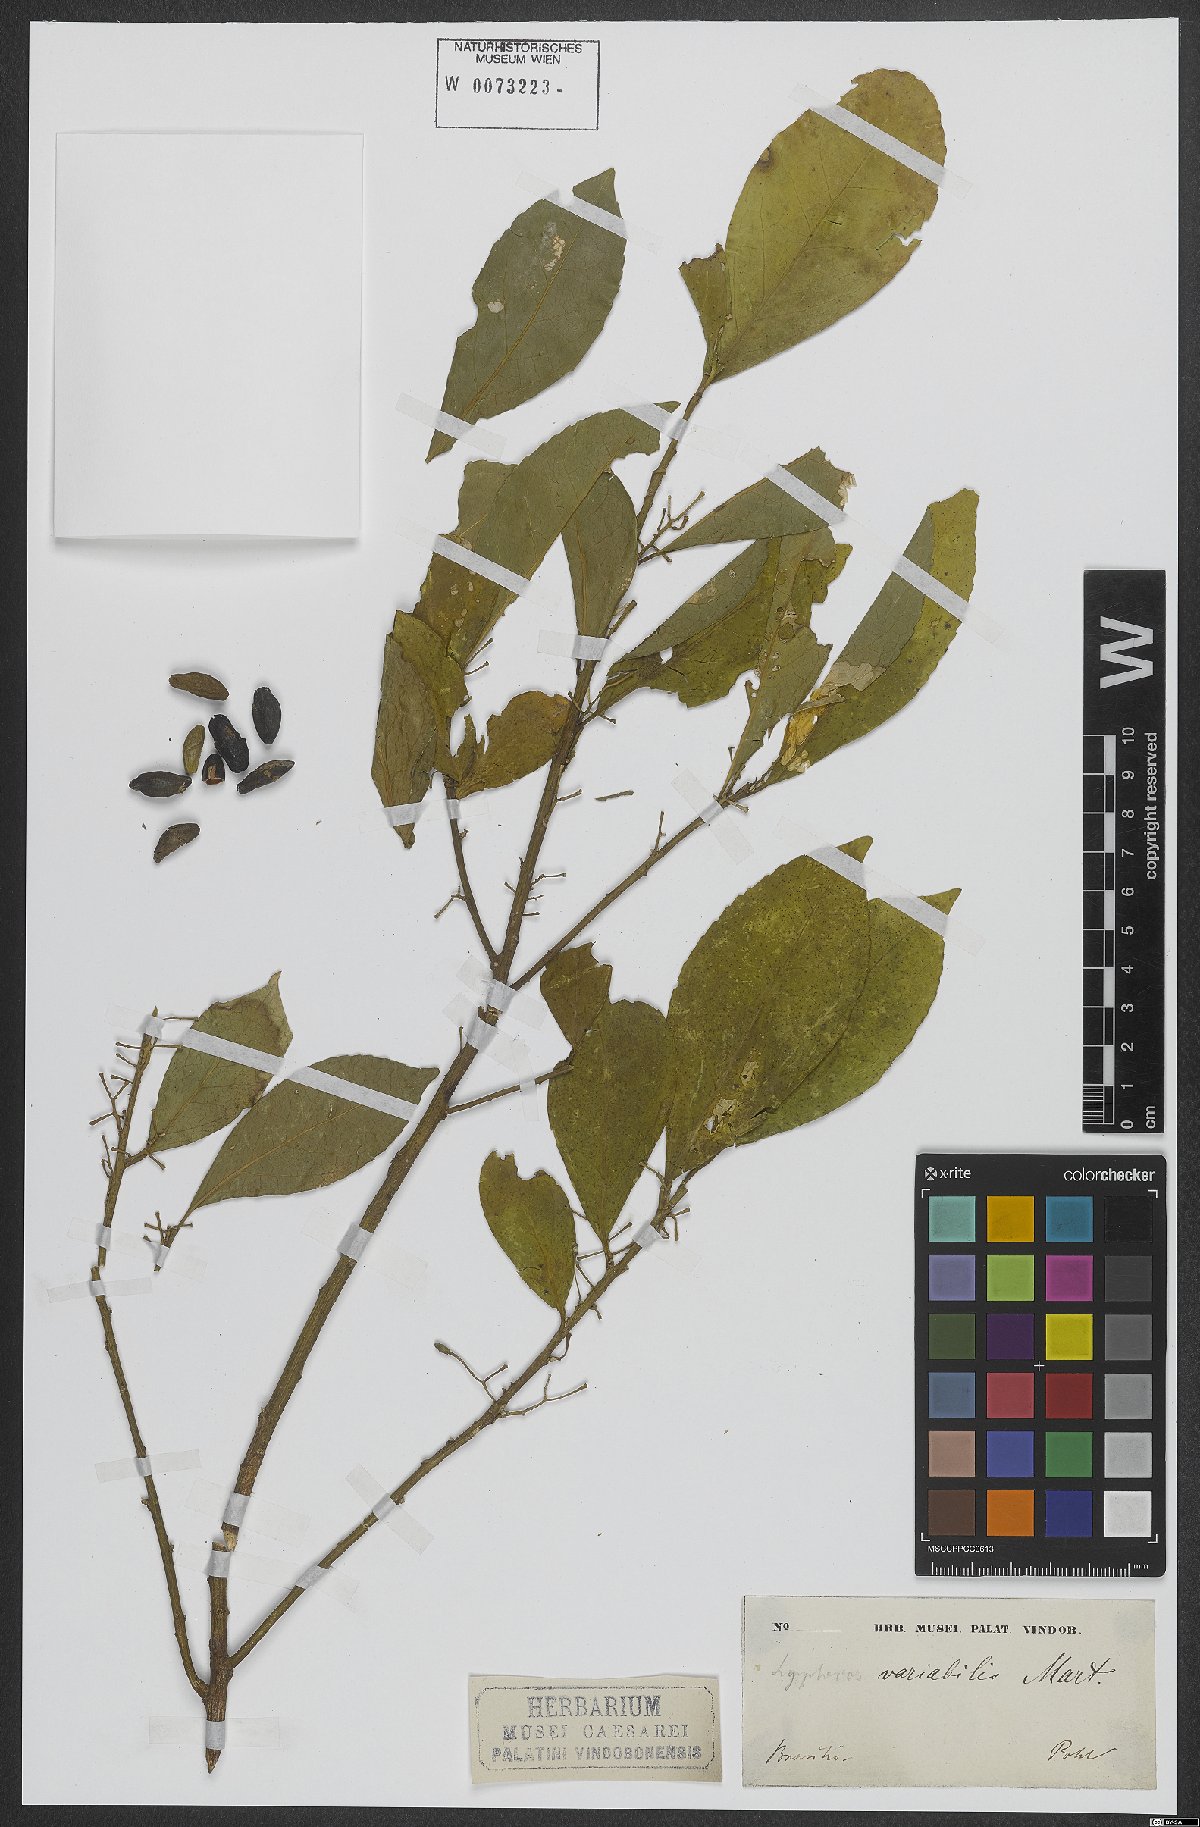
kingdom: Plantae
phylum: Tracheophyta
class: Magnoliopsida
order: Ericales
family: Symplocaceae
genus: Symplocos
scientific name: Symplocos estrellensis
